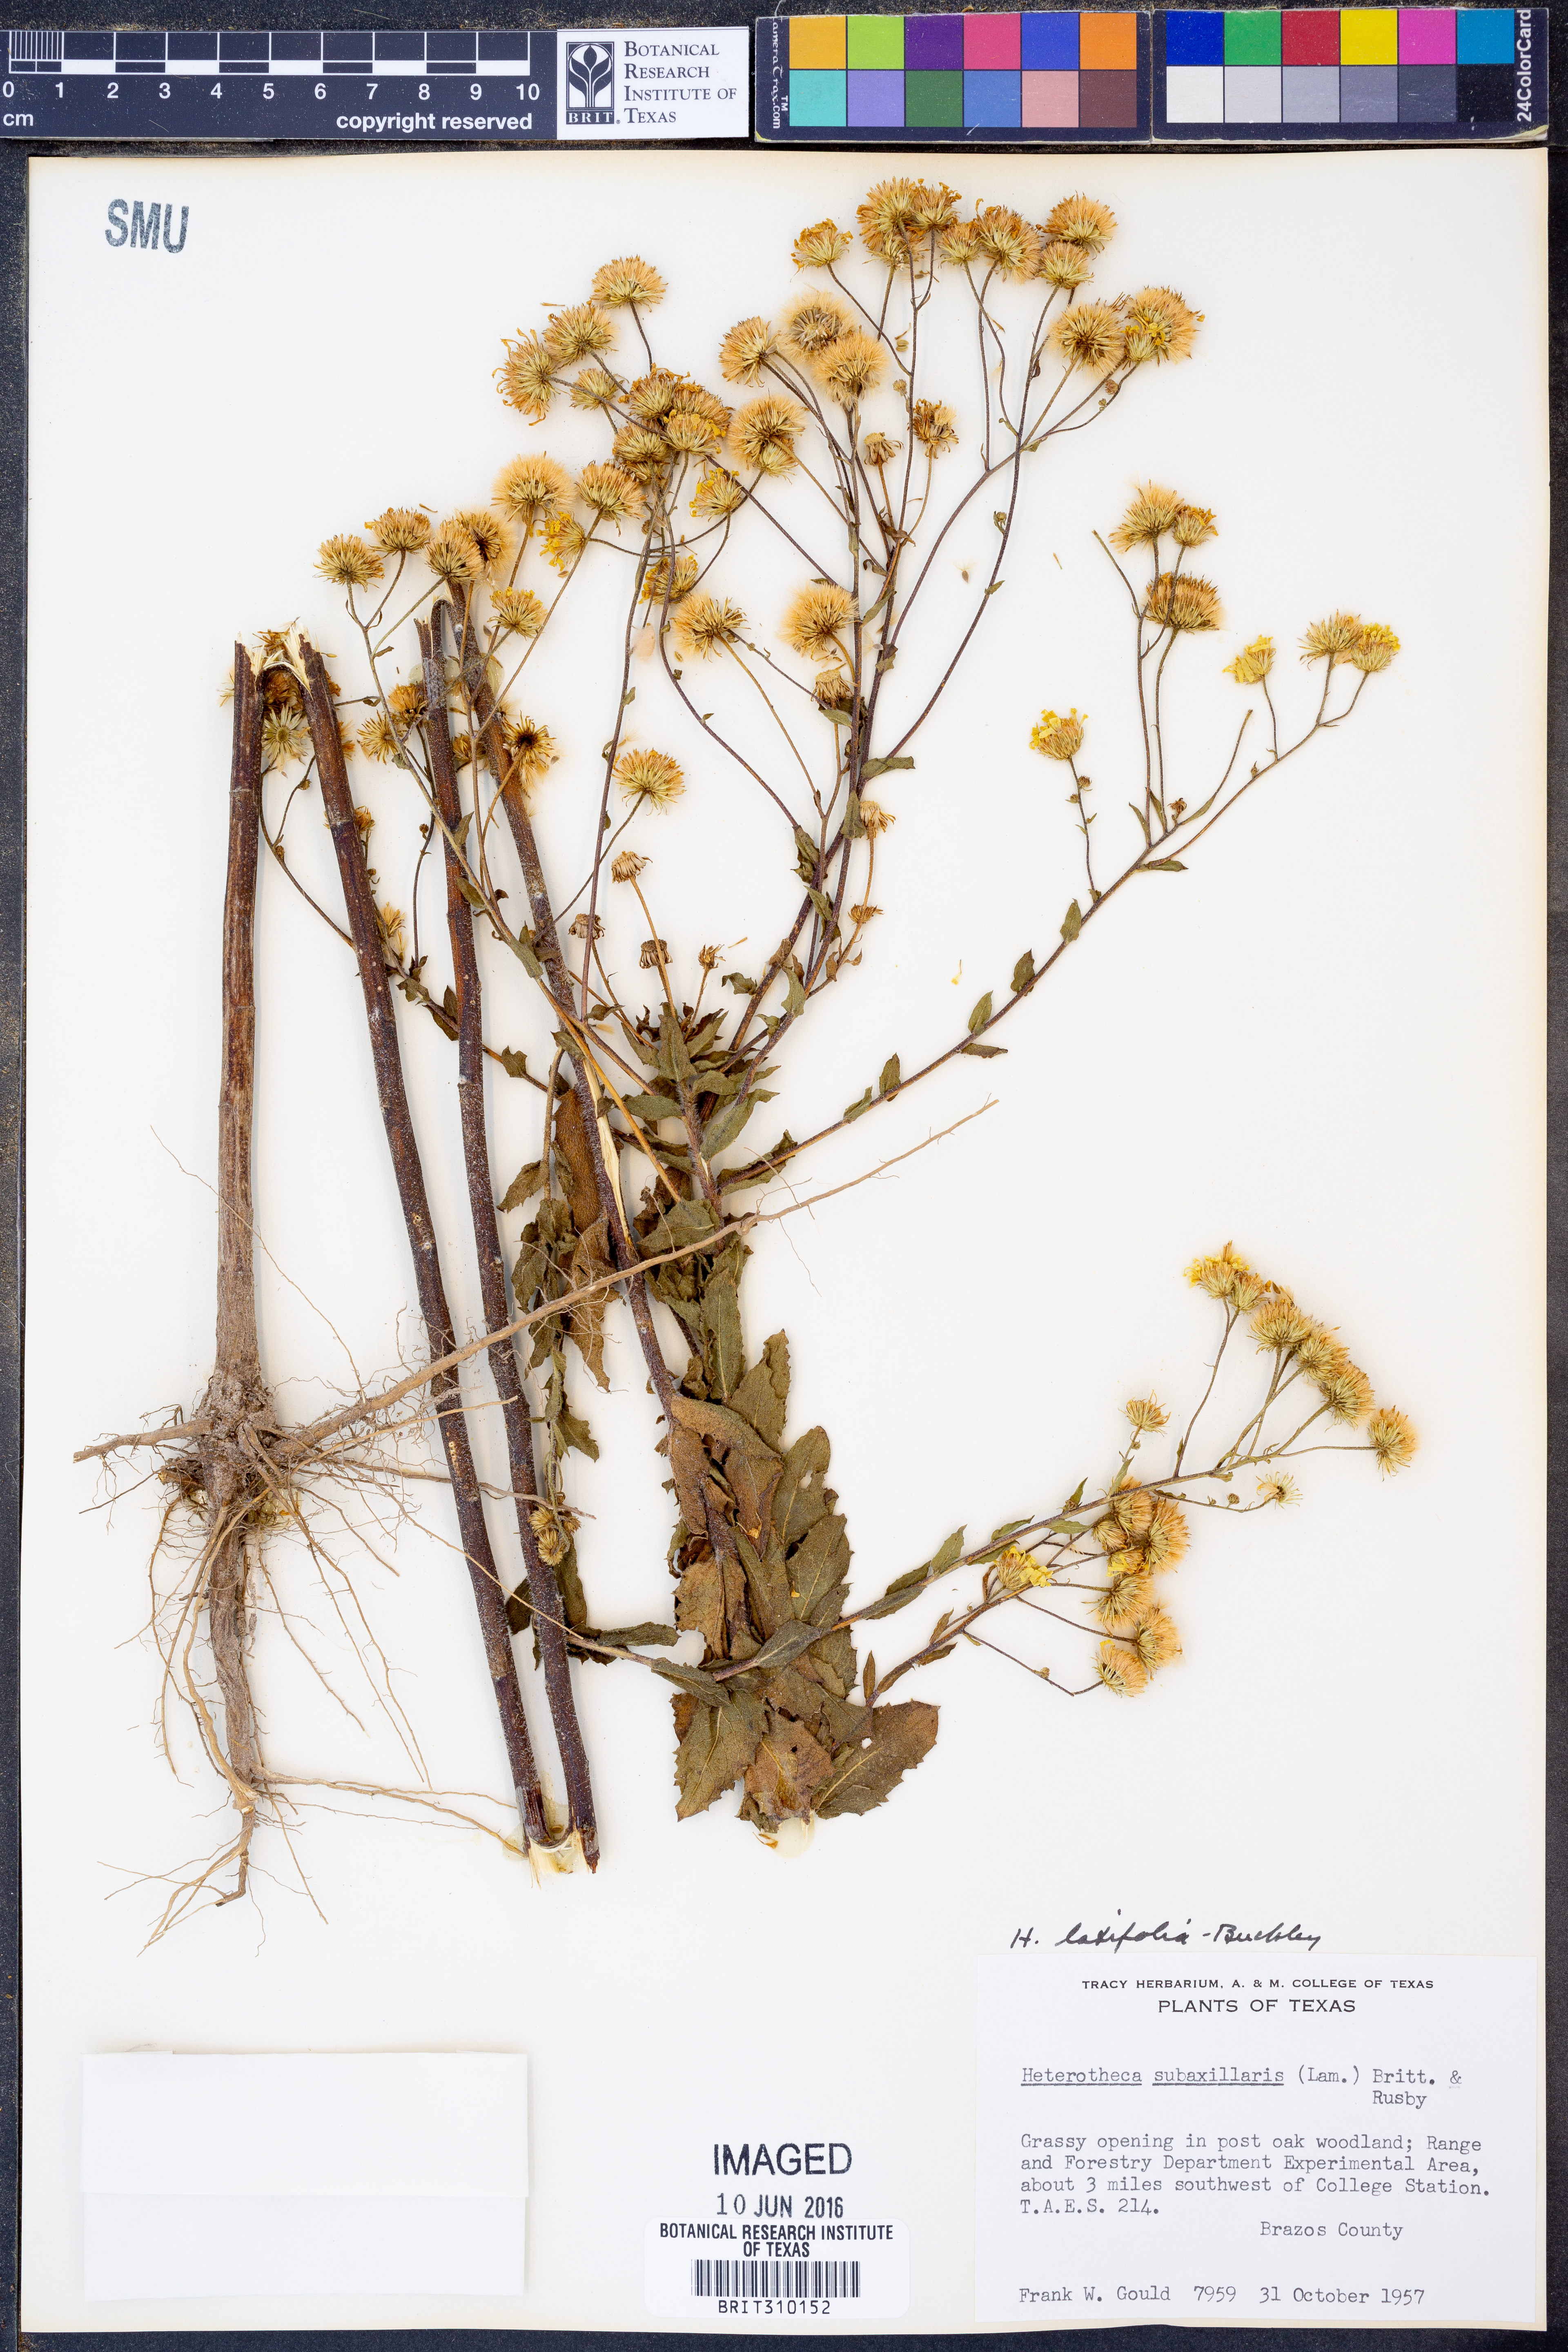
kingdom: Plantae
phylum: Tracheophyta
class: Magnoliopsida
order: Asterales
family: Asteraceae
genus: Heterotheca
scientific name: Heterotheca subaxillaris
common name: Camphorweed
